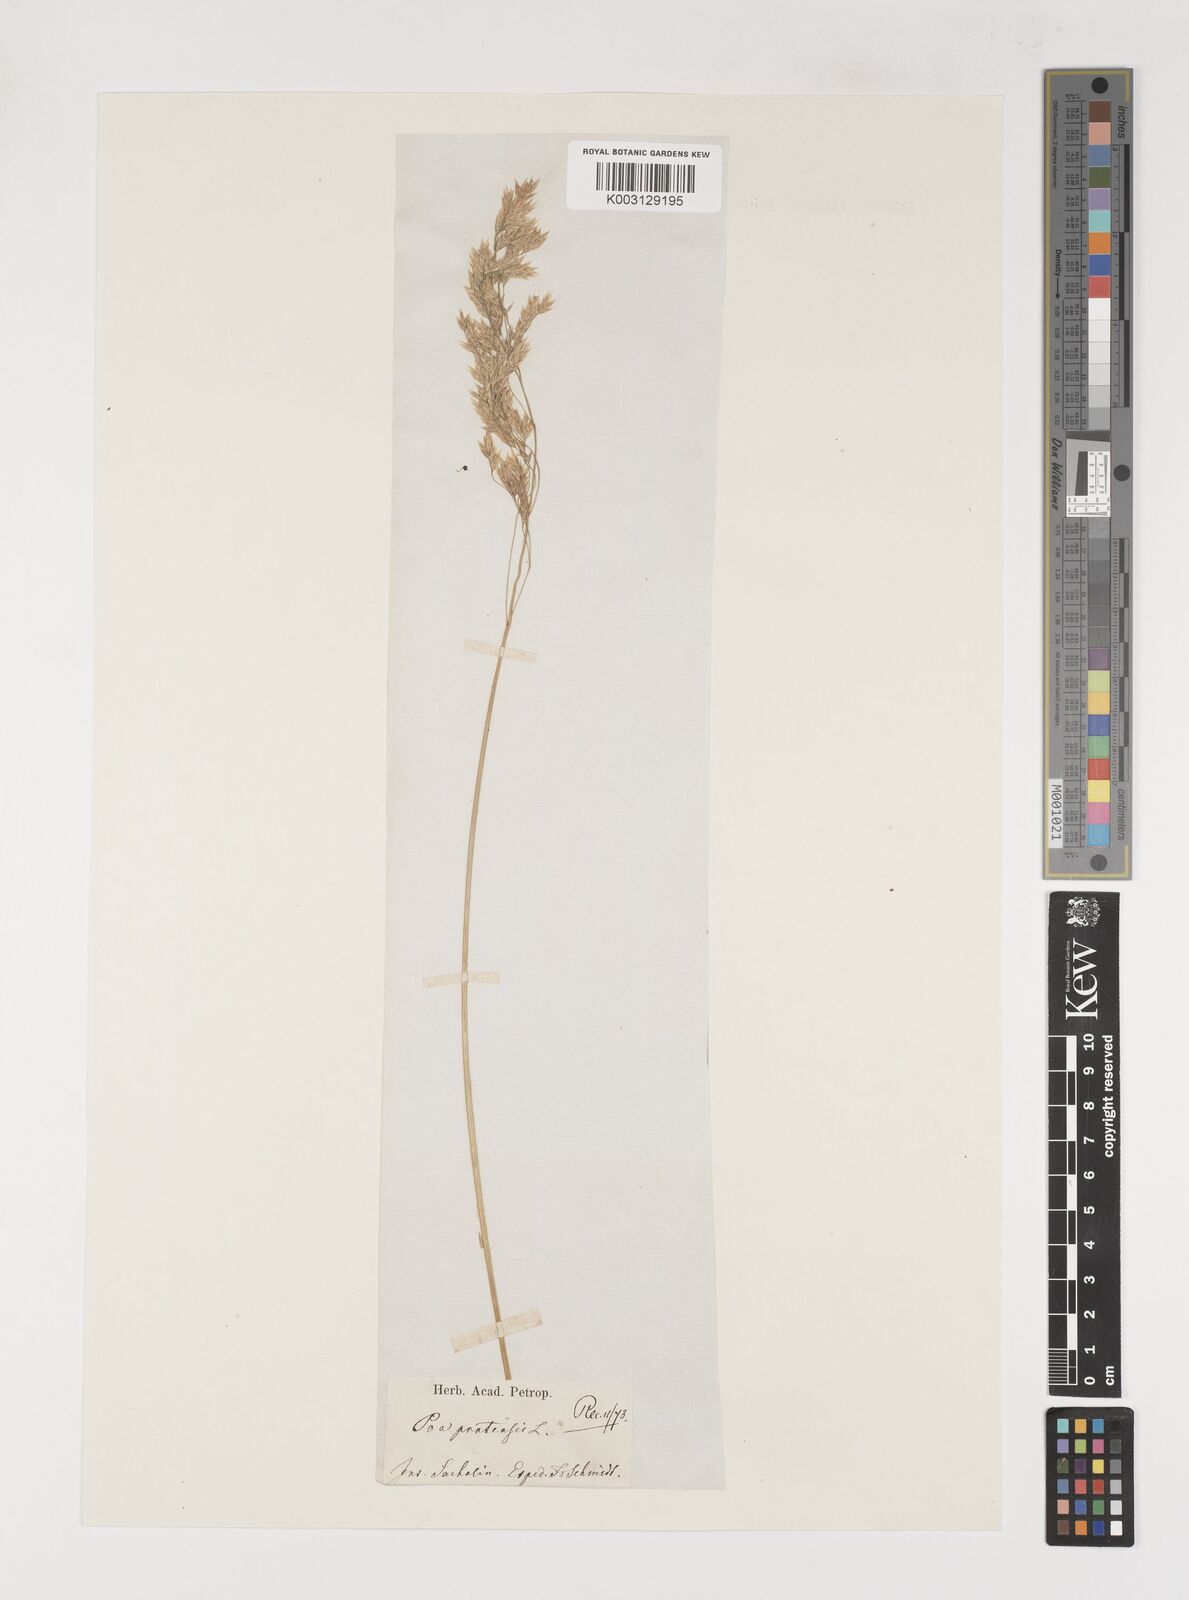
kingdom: Plantae
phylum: Tracheophyta
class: Liliopsida
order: Poales
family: Poaceae
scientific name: Poaceae
